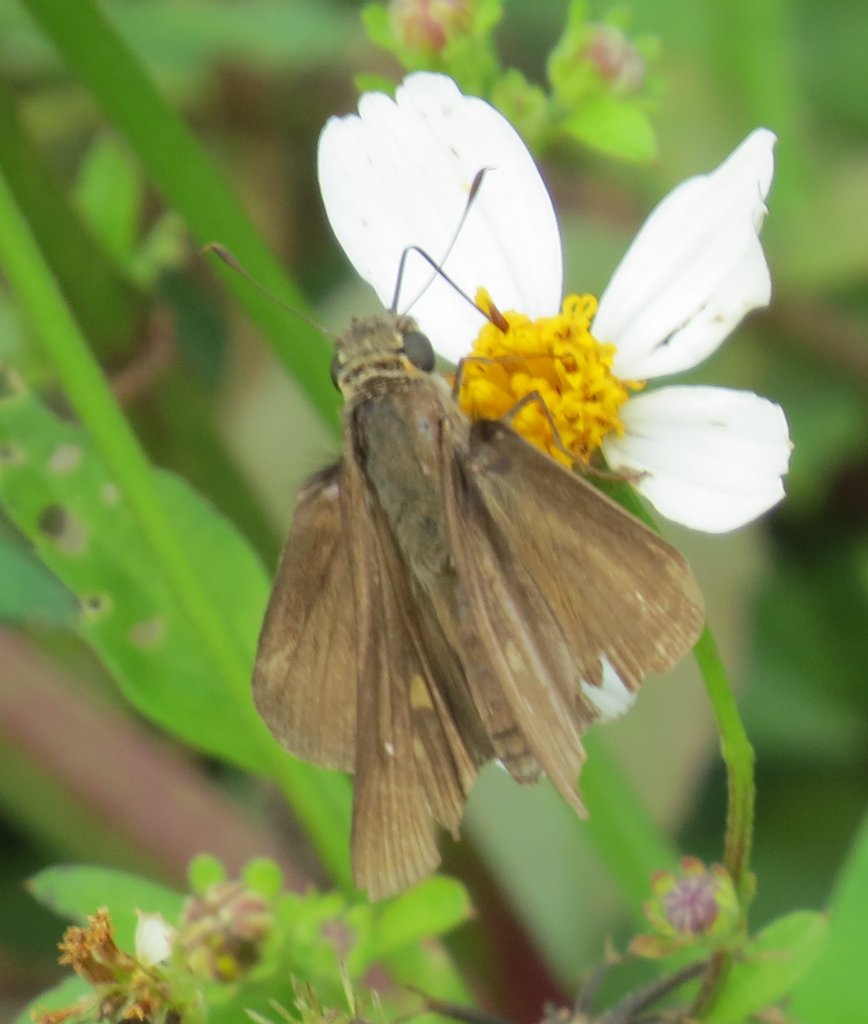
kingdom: Animalia
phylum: Arthropoda
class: Insecta
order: Lepidoptera
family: Hesperiidae
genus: Panoquina
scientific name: Panoquina ocola
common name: Ocola Skipper
